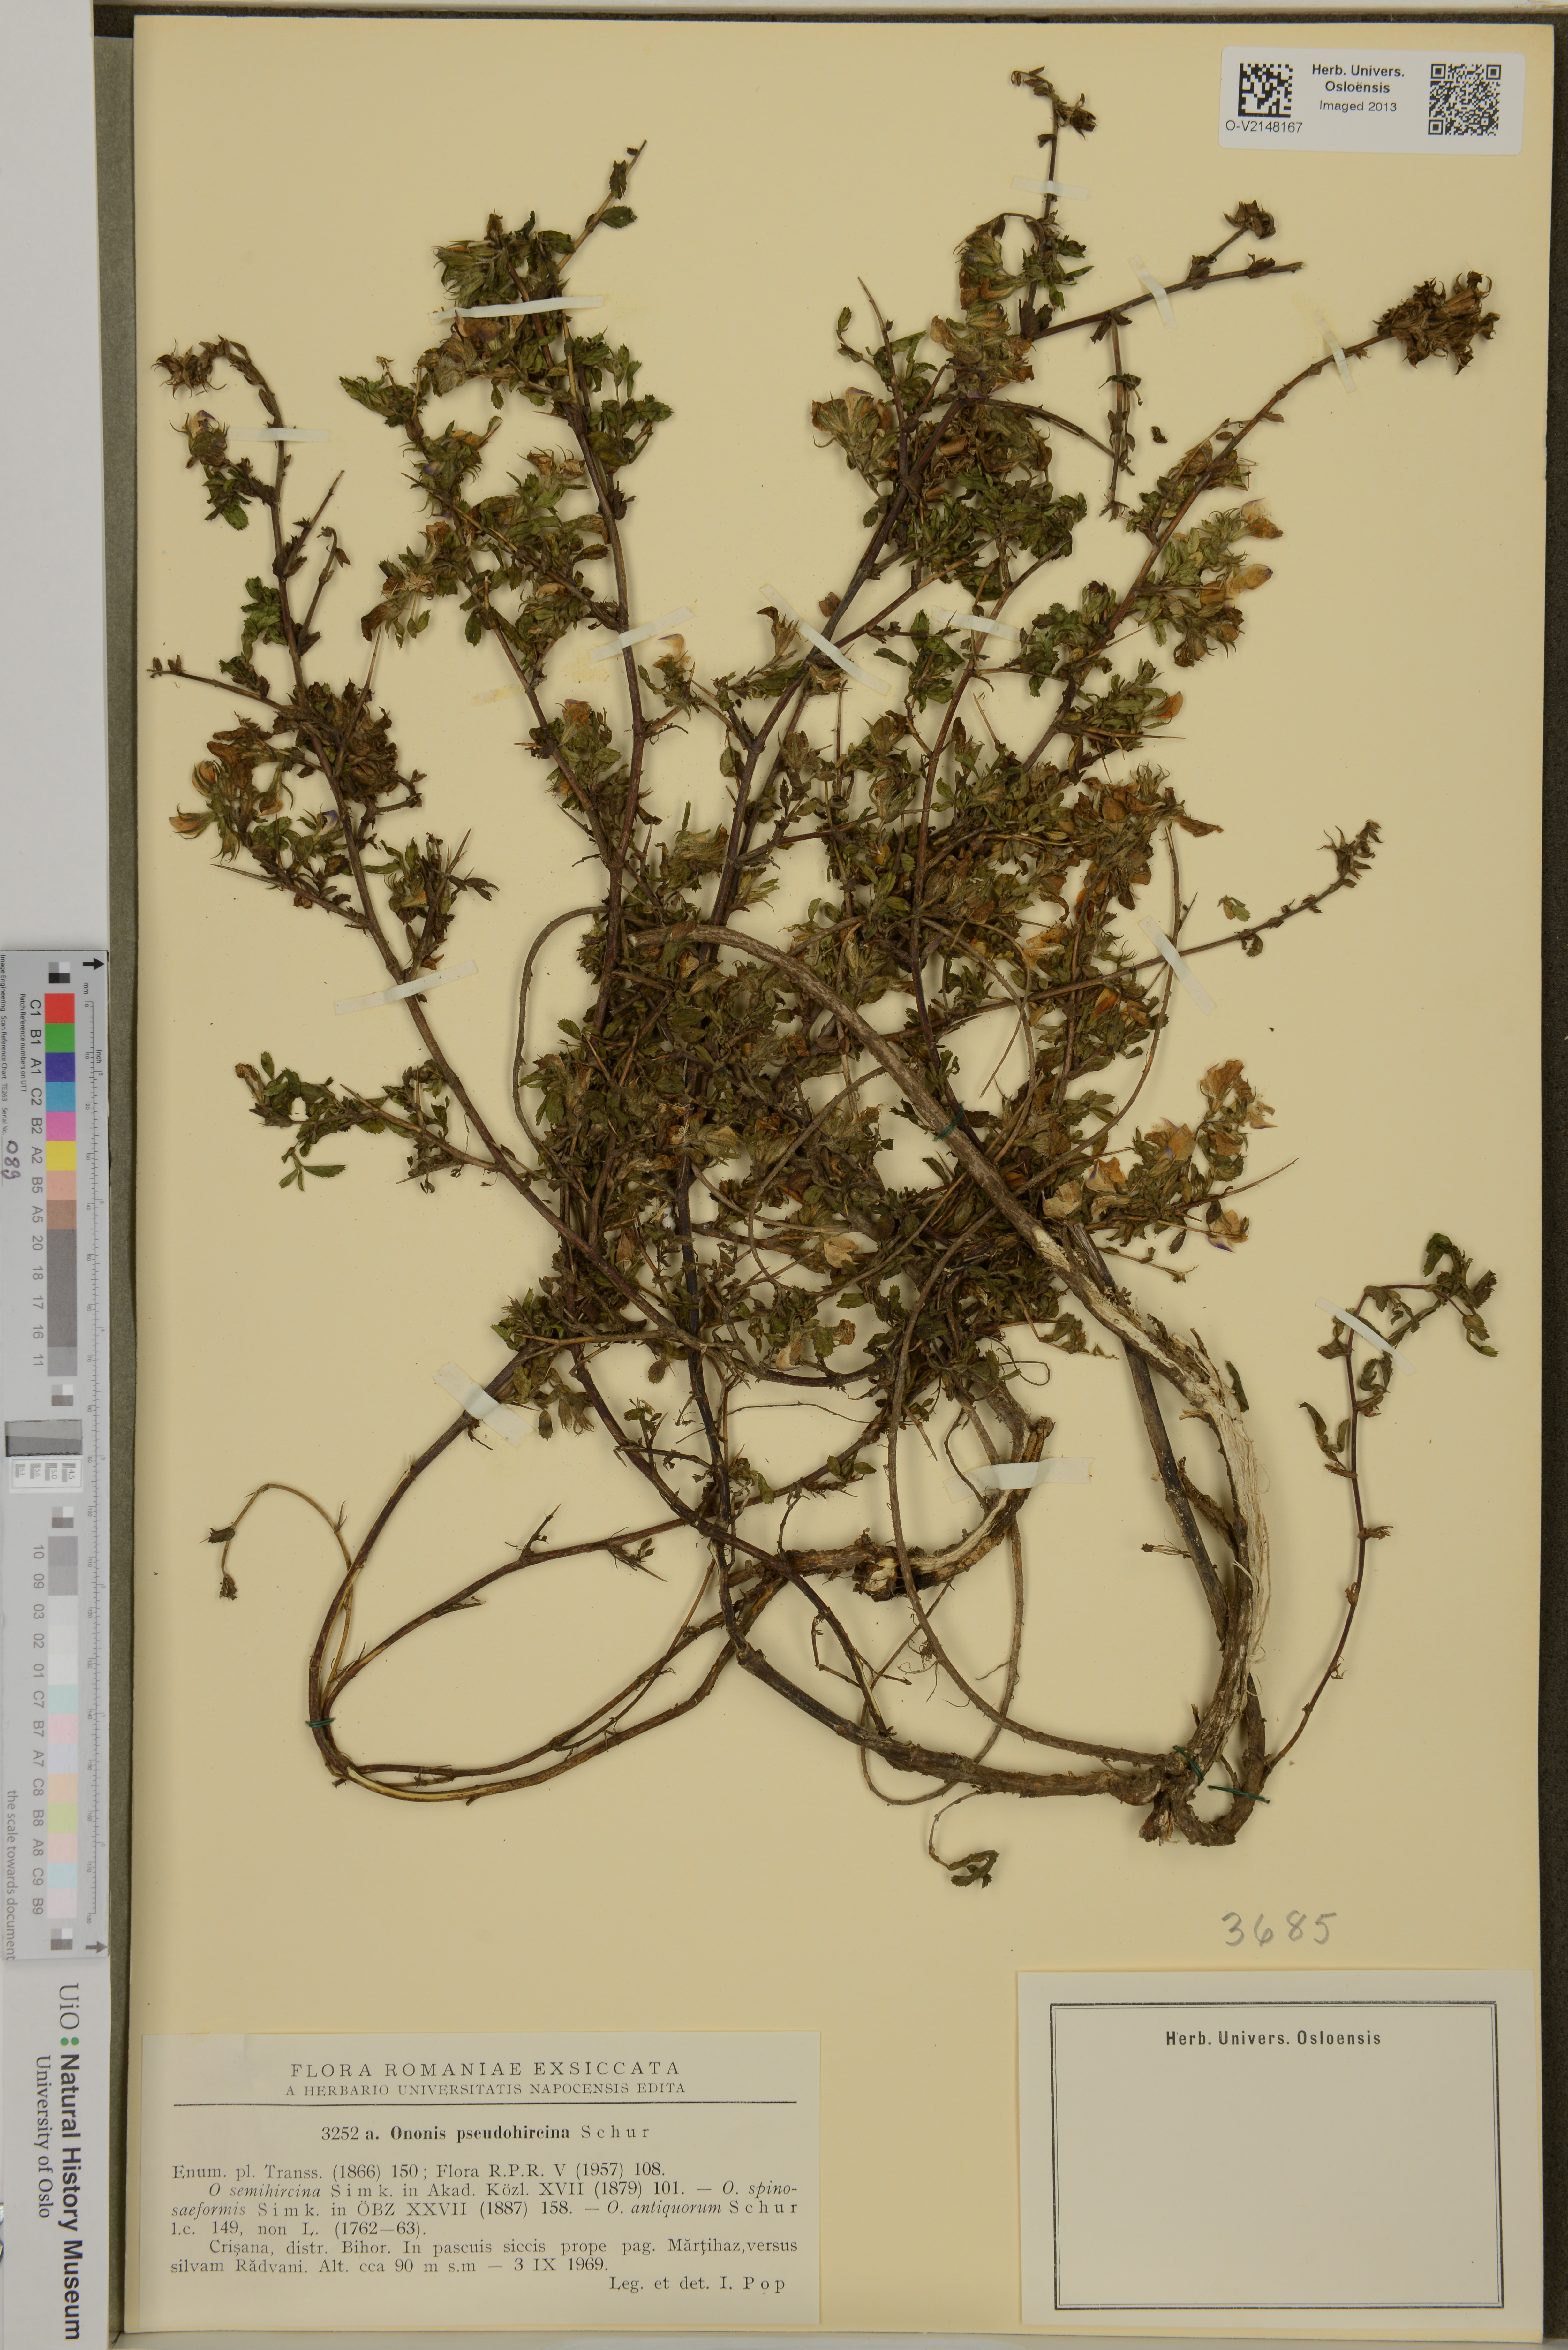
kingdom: Plantae
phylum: Tracheophyta
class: Magnoliopsida
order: Fabales
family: Fabaceae
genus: Ononis
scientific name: Ononis spinosa
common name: Spiny restharrow
